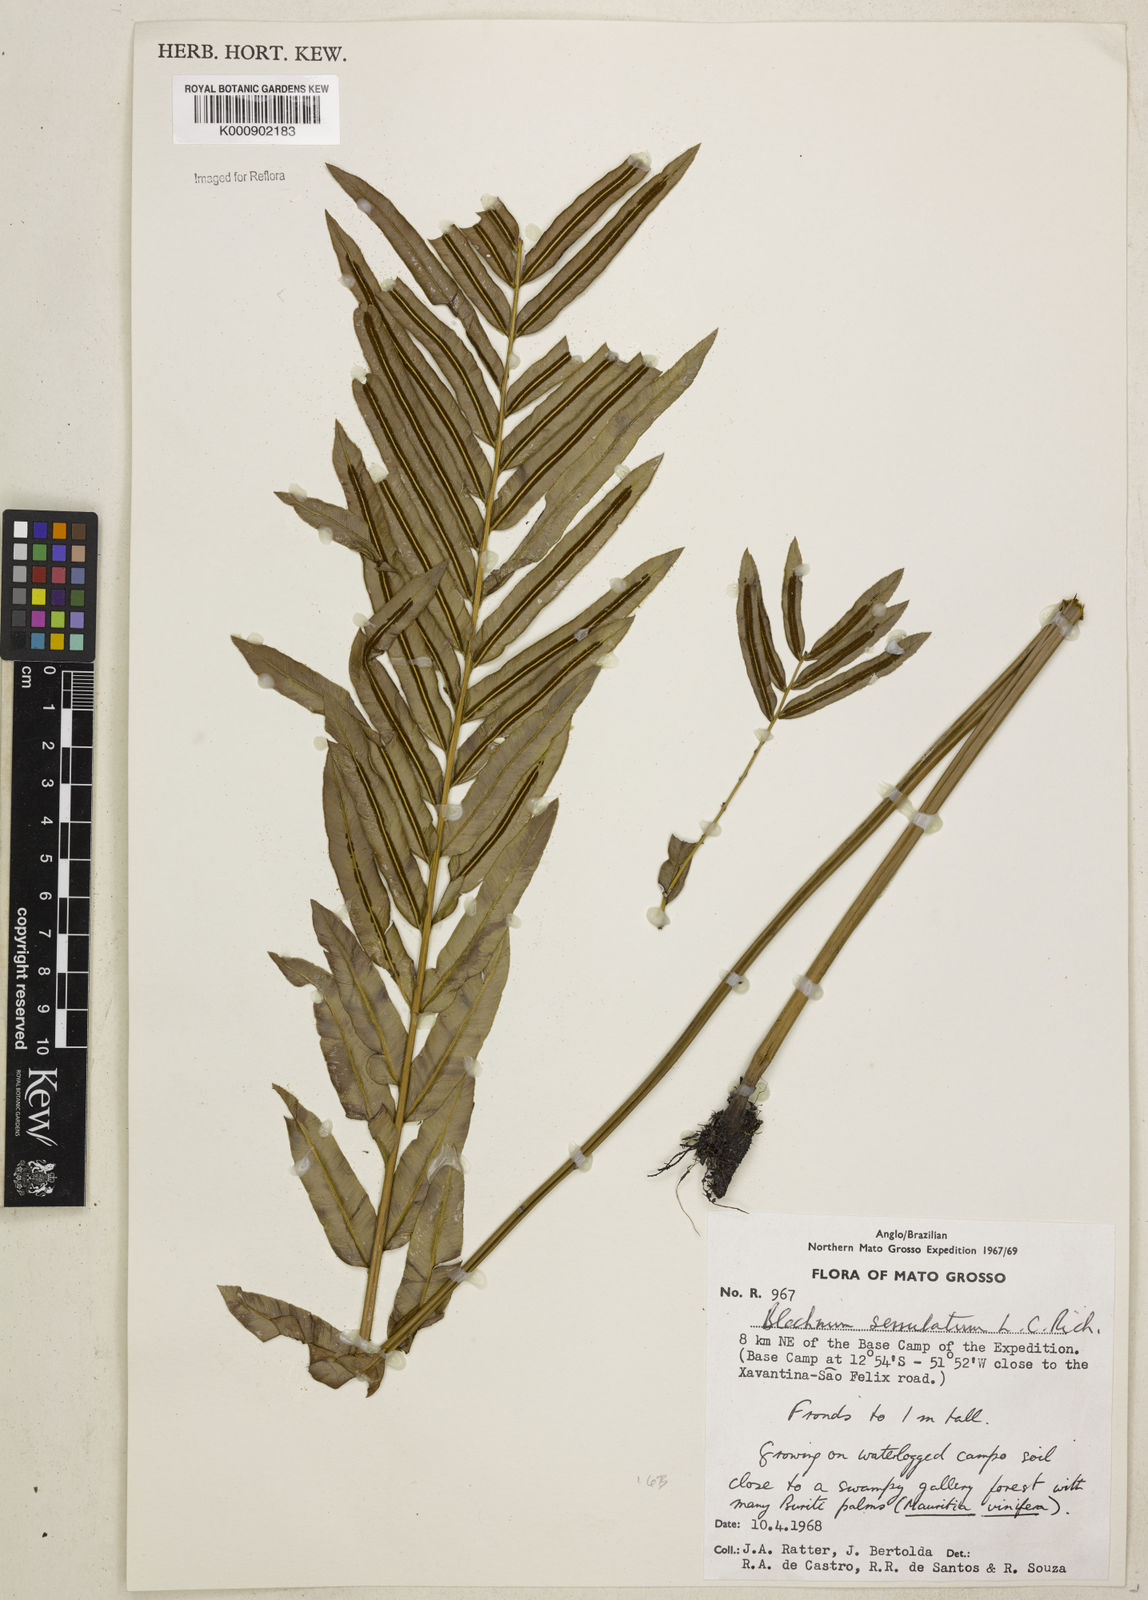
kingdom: Plantae
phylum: Tracheophyta
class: Polypodiopsida
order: Polypodiales
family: Blechnaceae
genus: Telmatoblechnum
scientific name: Telmatoblechnum serrulatum
